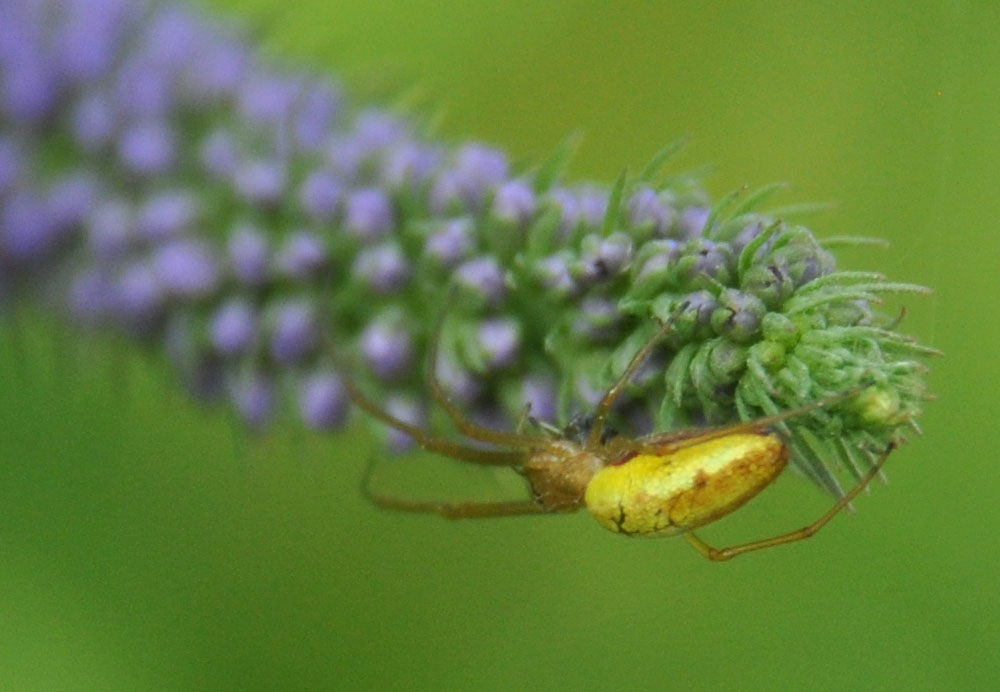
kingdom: Animalia
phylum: Arthropoda
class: Arachnida
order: Araneae
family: Tetragnathidae
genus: Tetragnatha
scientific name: Tetragnatha
